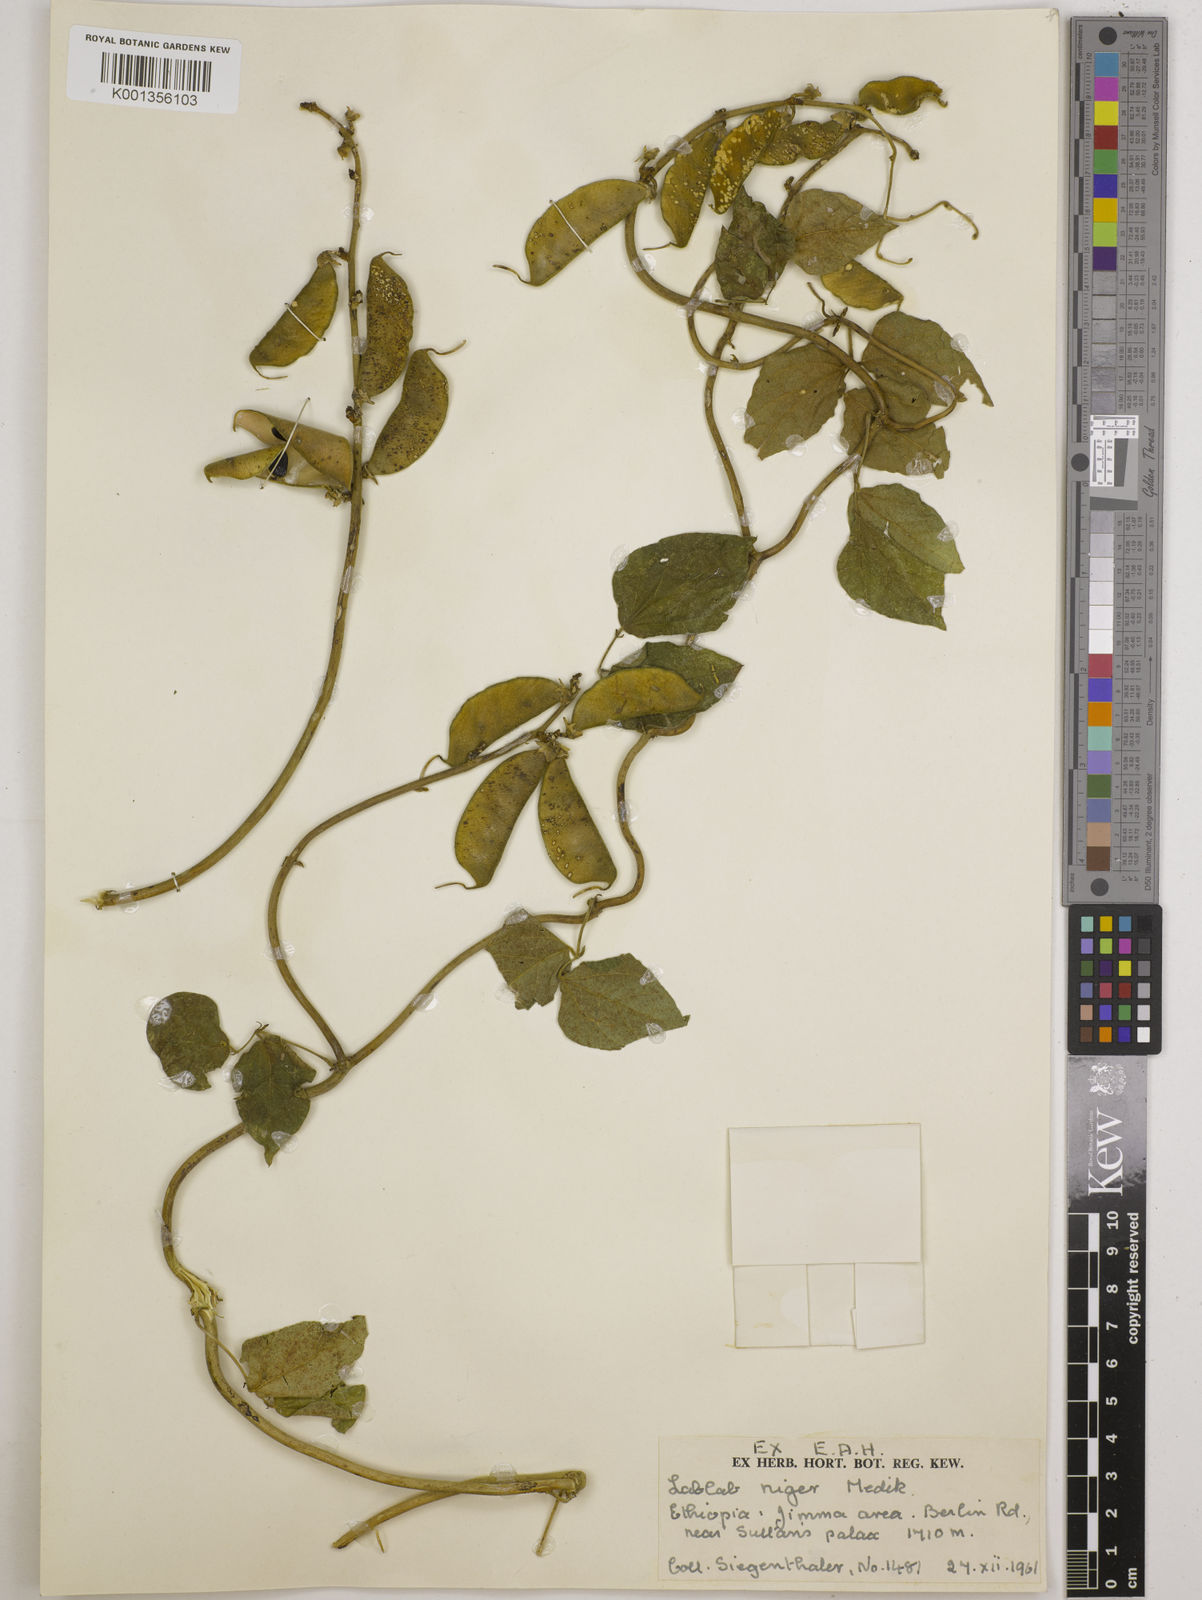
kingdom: Plantae
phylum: Tracheophyta
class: Magnoliopsida
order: Fabales
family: Fabaceae
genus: Lablab
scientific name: Lablab purpureus
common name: Lablab-bean
